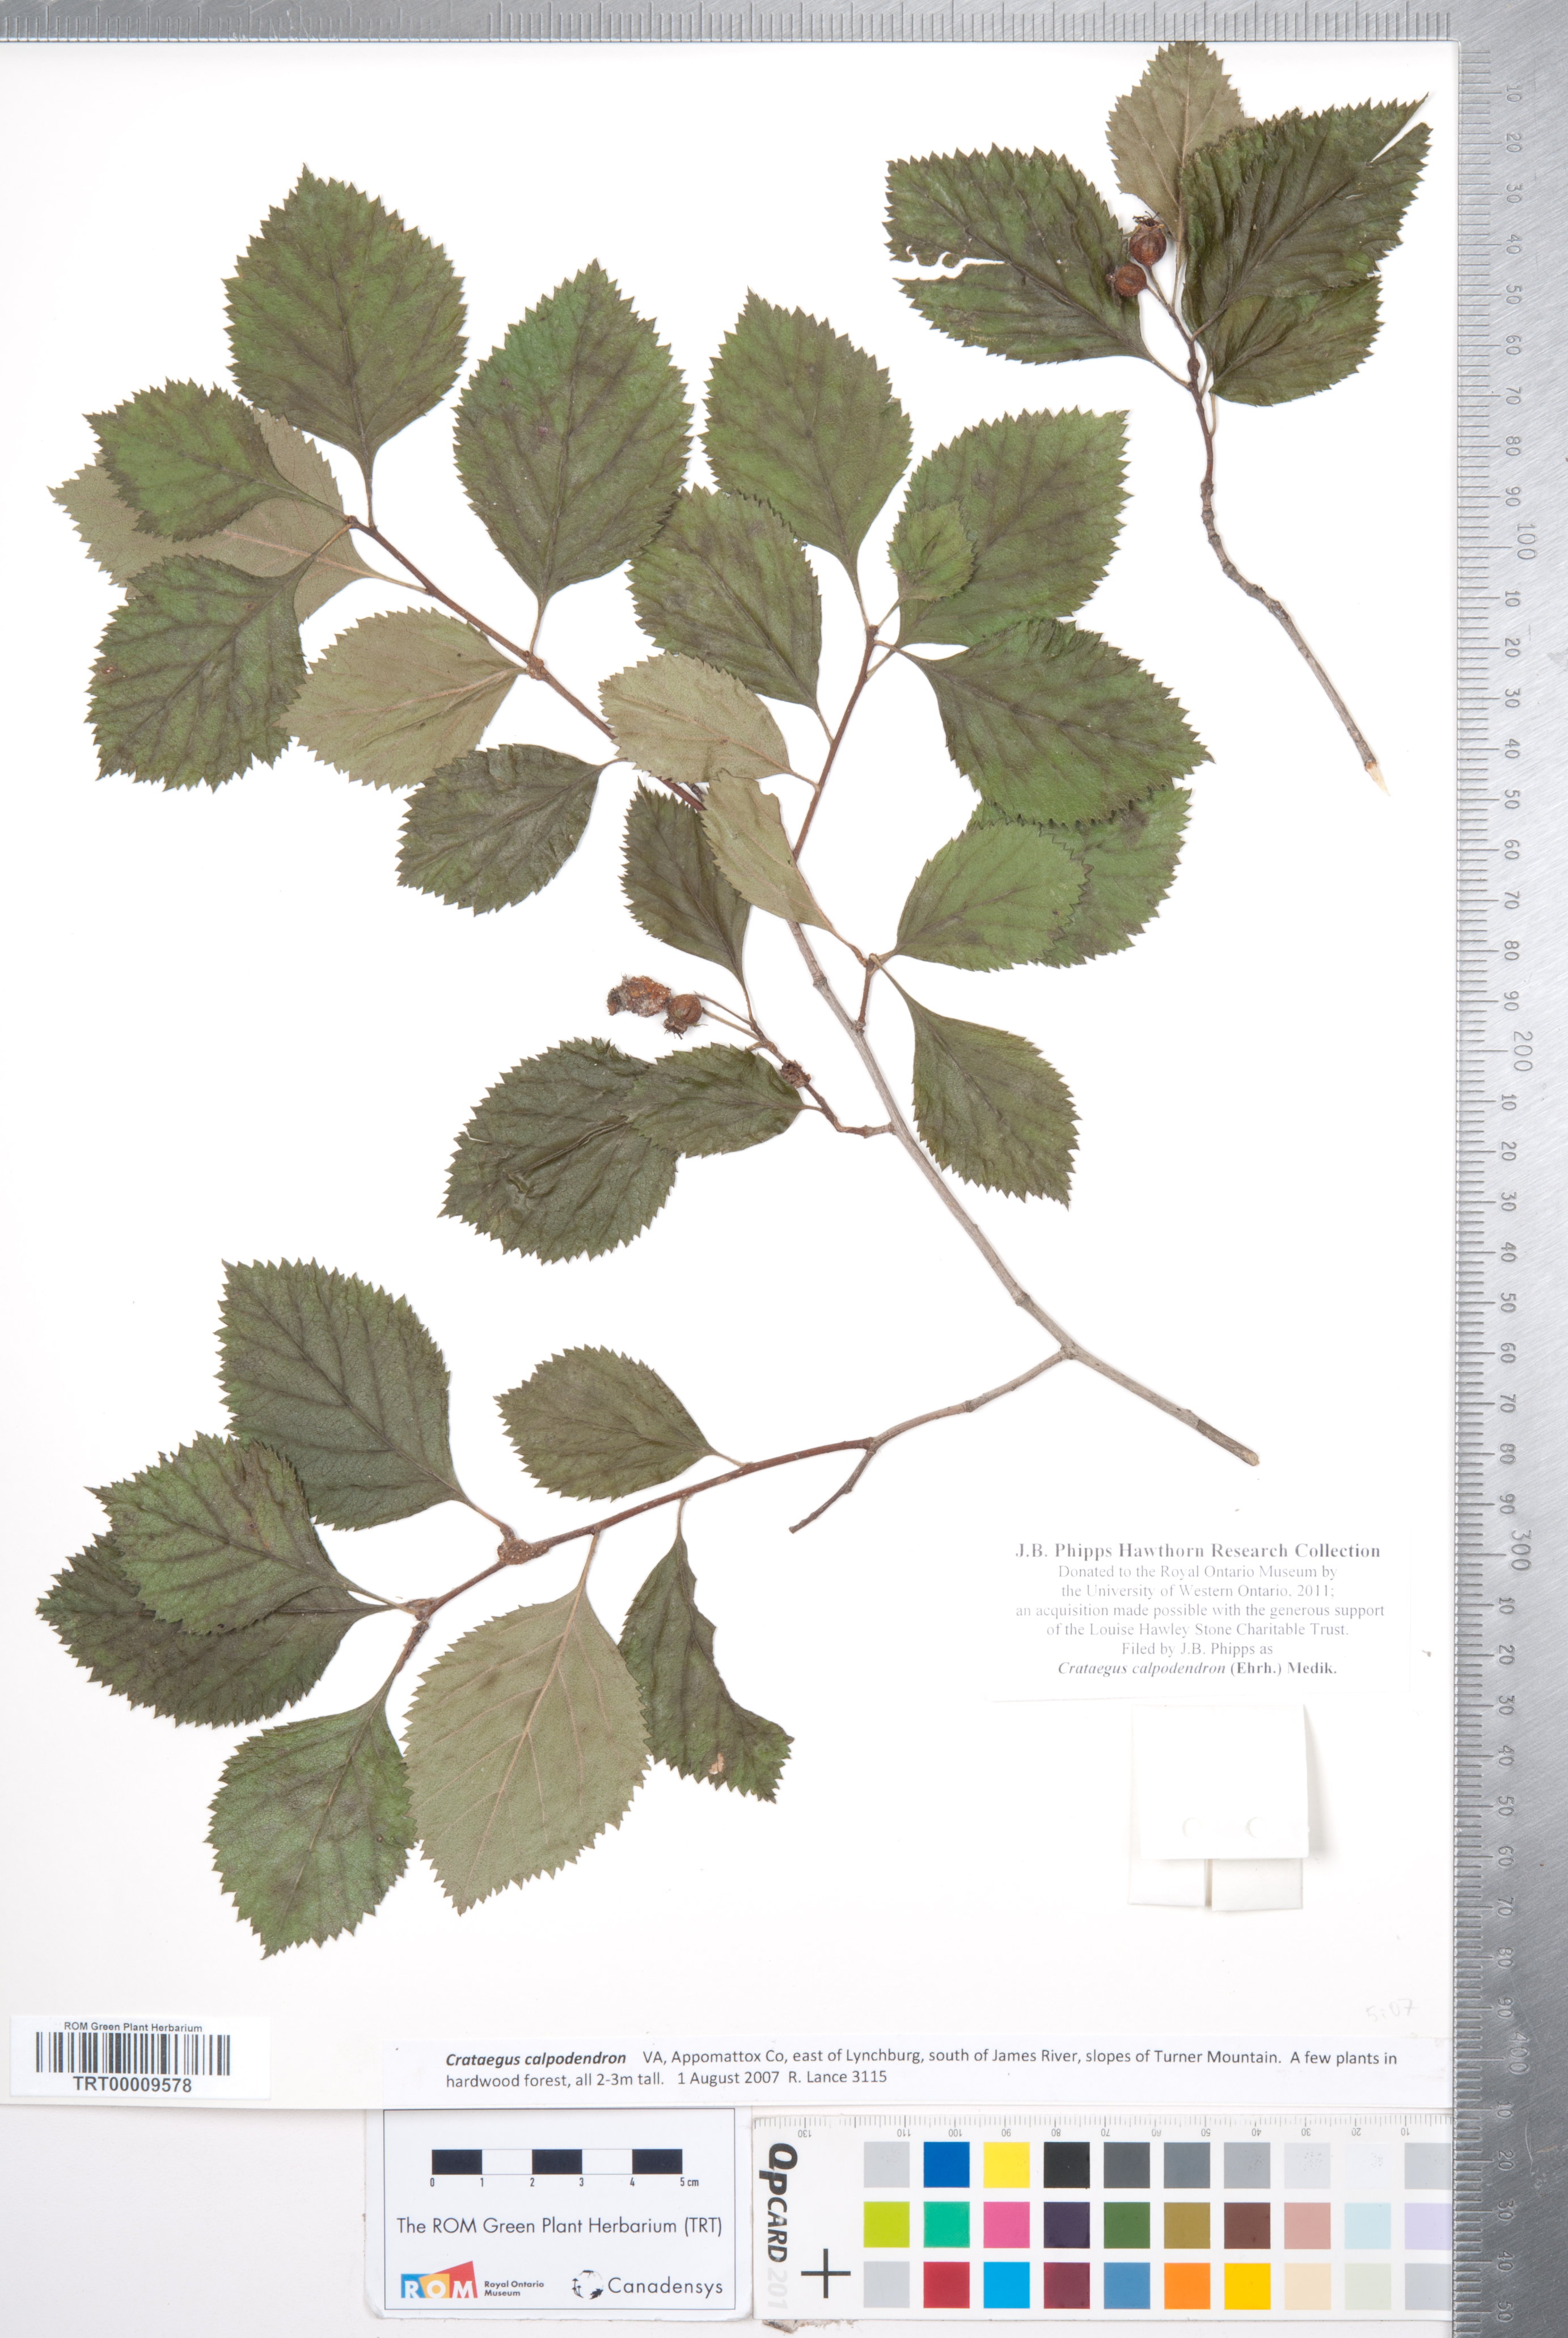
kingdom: Plantae
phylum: Tracheophyta
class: Magnoliopsida
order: Rosales
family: Rosaceae
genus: Crataegus
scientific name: Crataegus calpodendron
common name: Pear hawthorn
